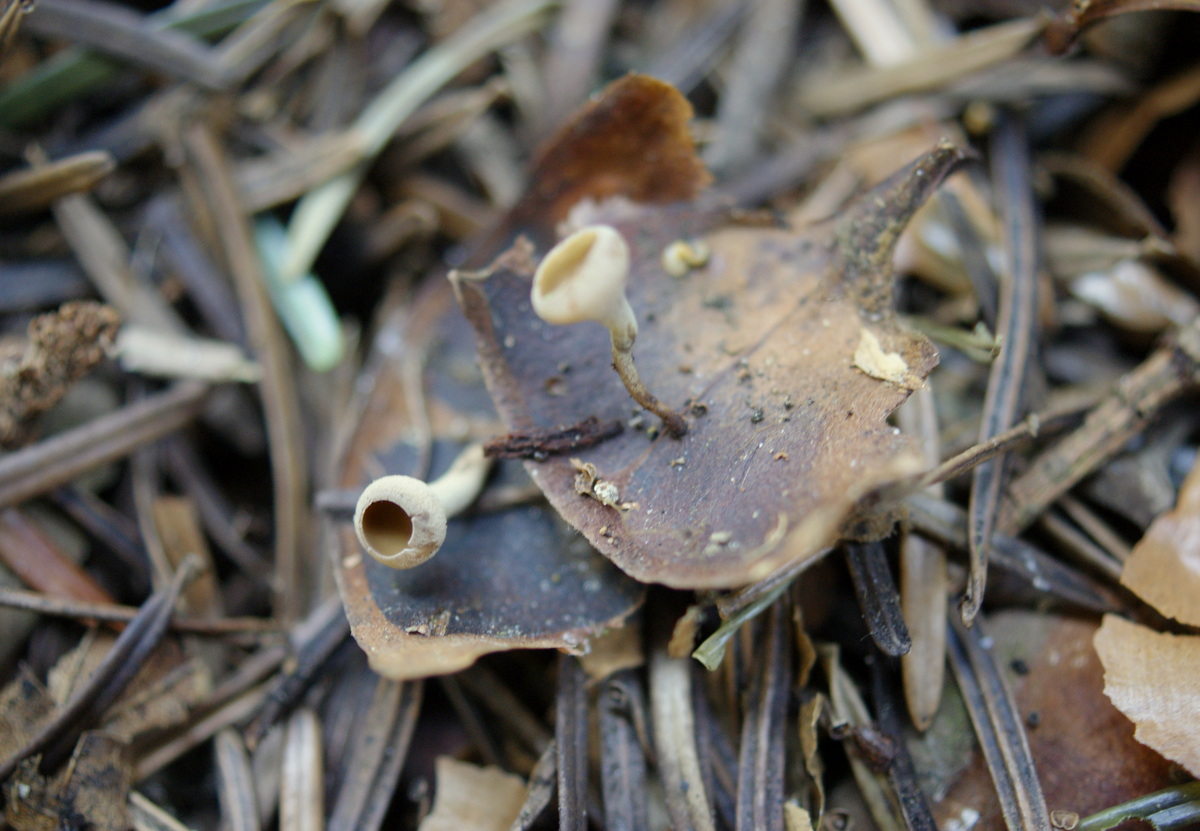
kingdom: Fungi
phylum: Ascomycota
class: Leotiomycetes
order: Helotiales
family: Sclerotiniaceae
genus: Ciboria
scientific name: Ciboria rufofusca
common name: kogleskæl-knoldskive
